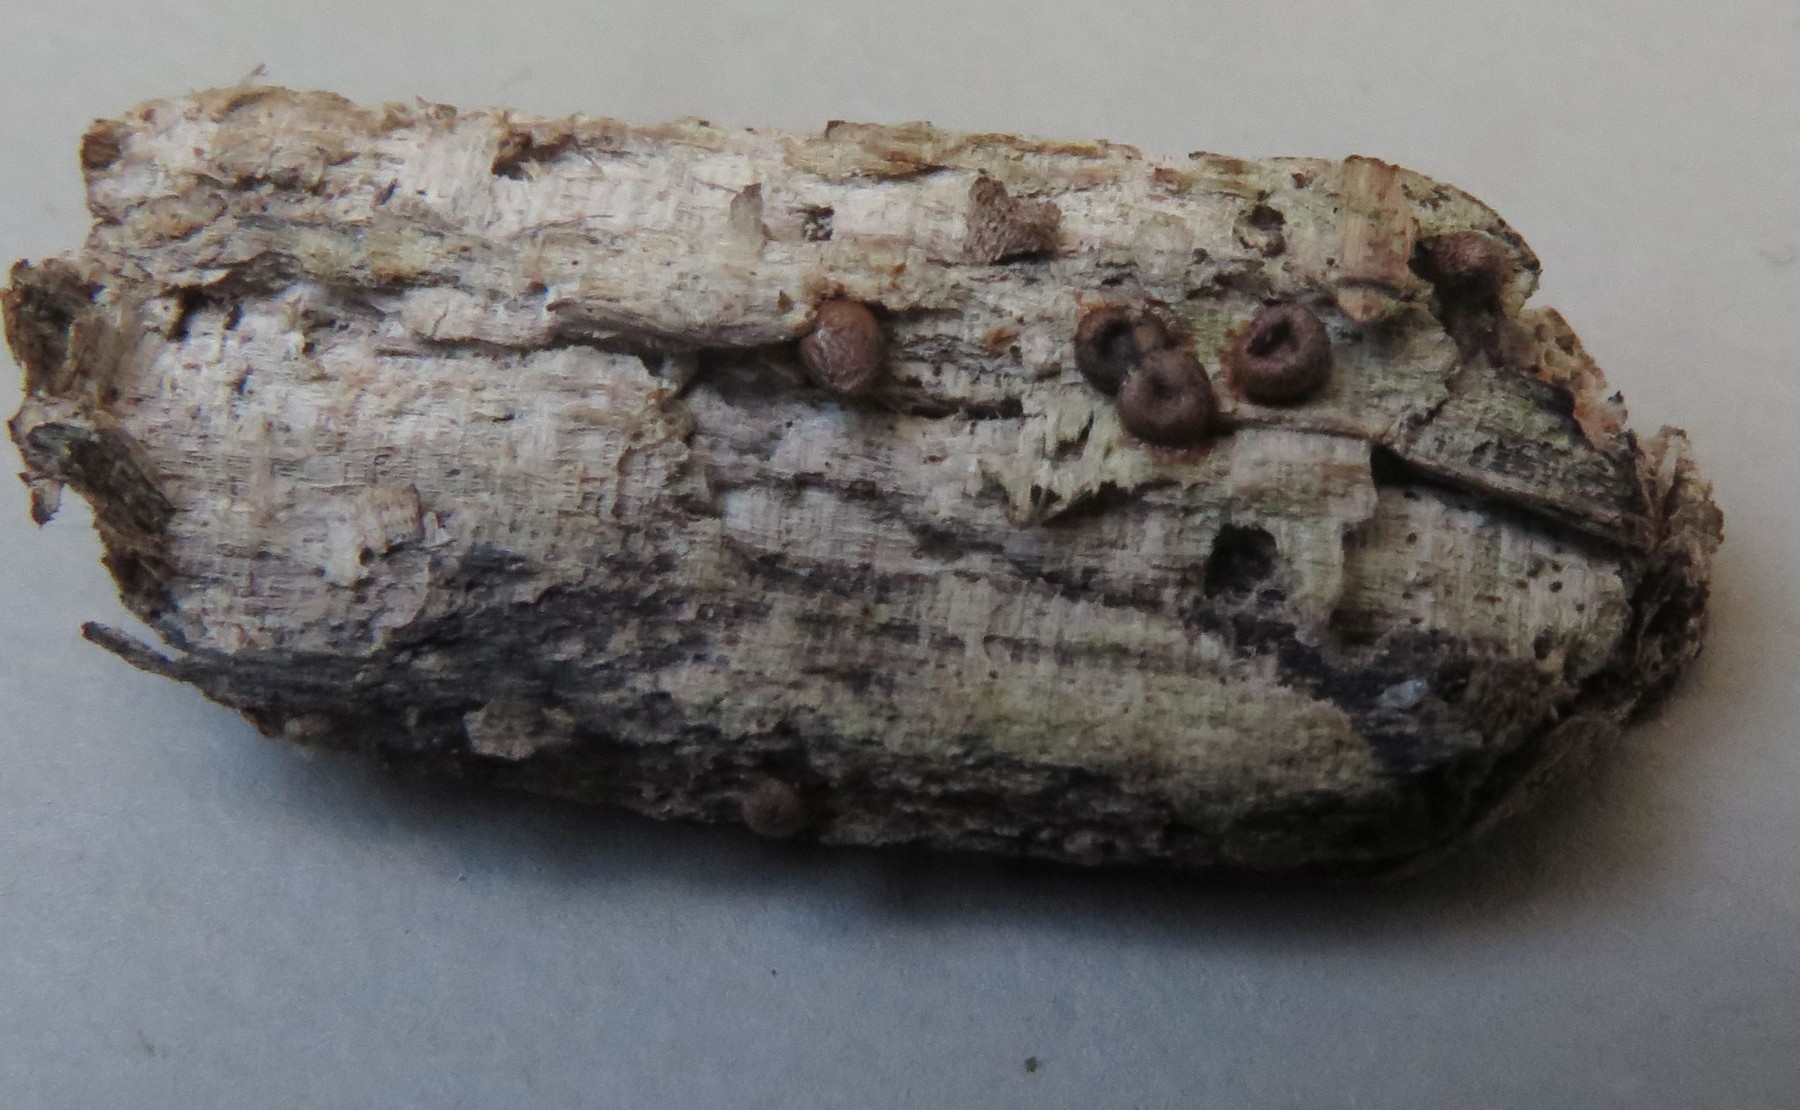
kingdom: Protozoa
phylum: Mycetozoa
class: Myxomycetes
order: Cribrariales
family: Tubiferaceae
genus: Lycogala
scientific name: Lycogala conicum
